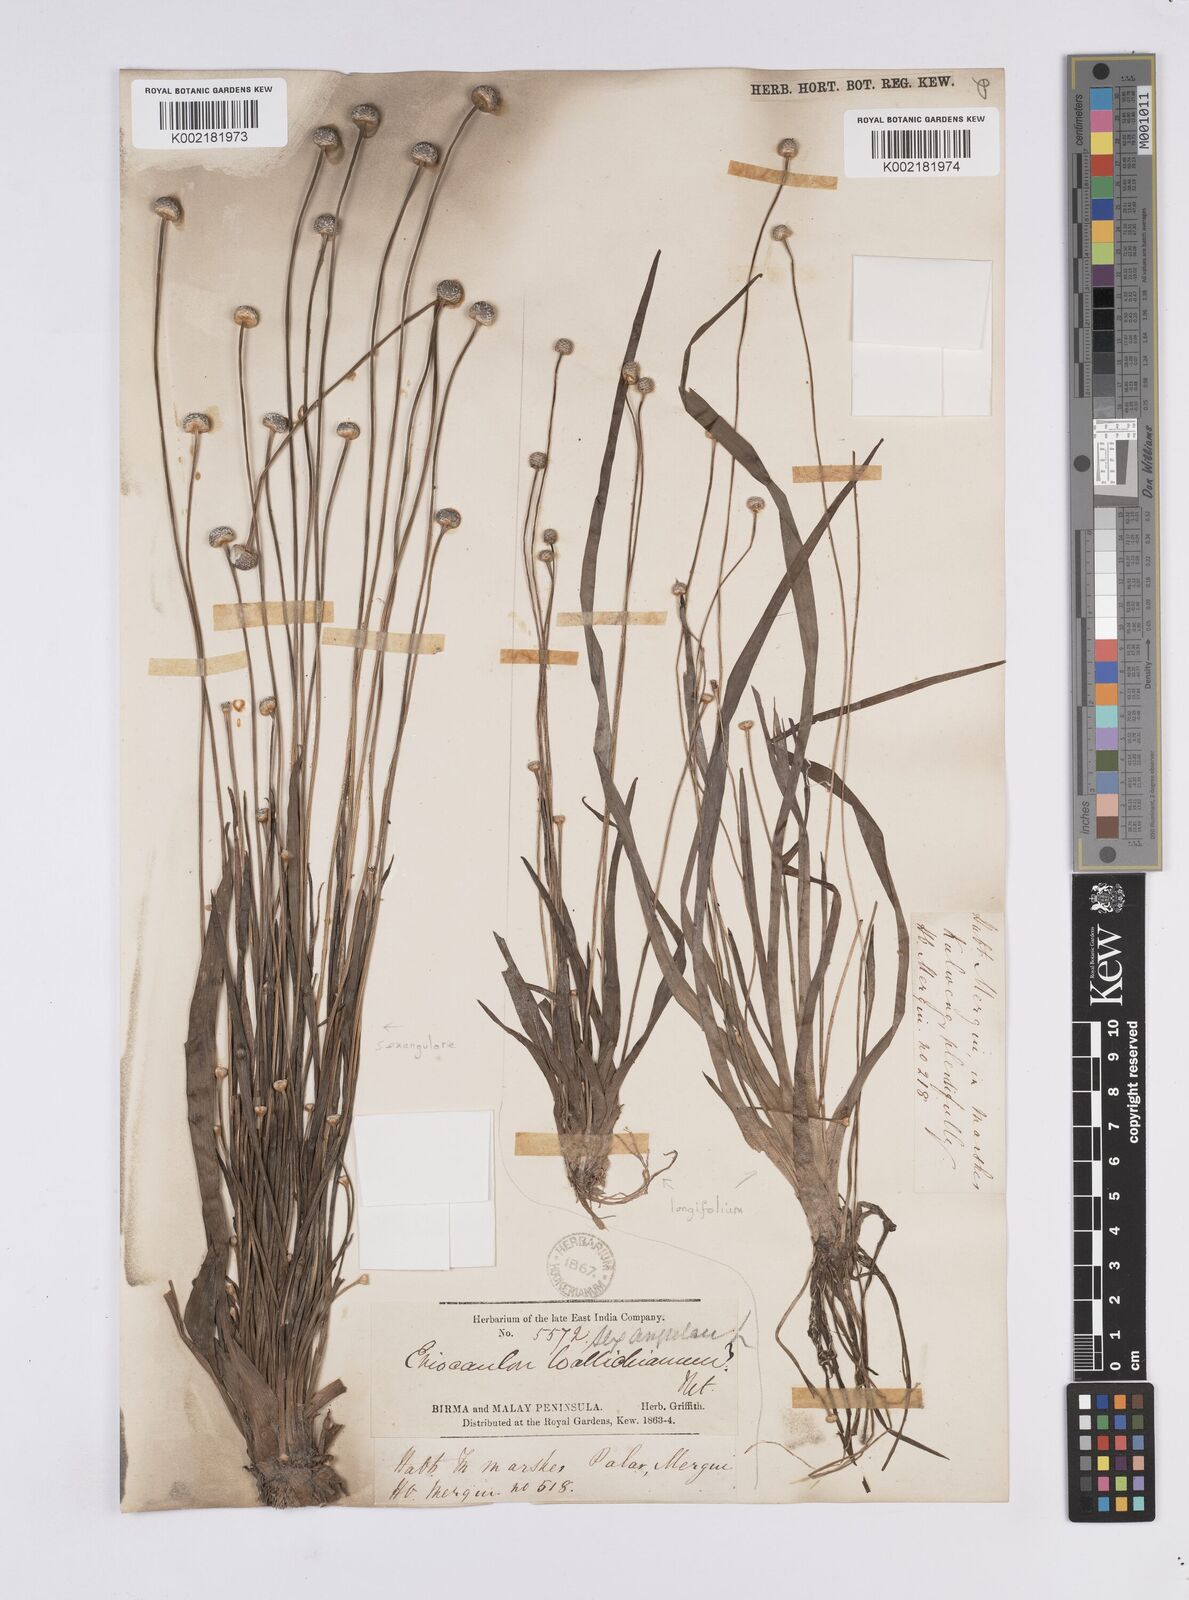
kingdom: Plantae
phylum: Tracheophyta
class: Liliopsida
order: Poales
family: Eriocaulaceae
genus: Eriocaulon
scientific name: Eriocaulon sexangulare
